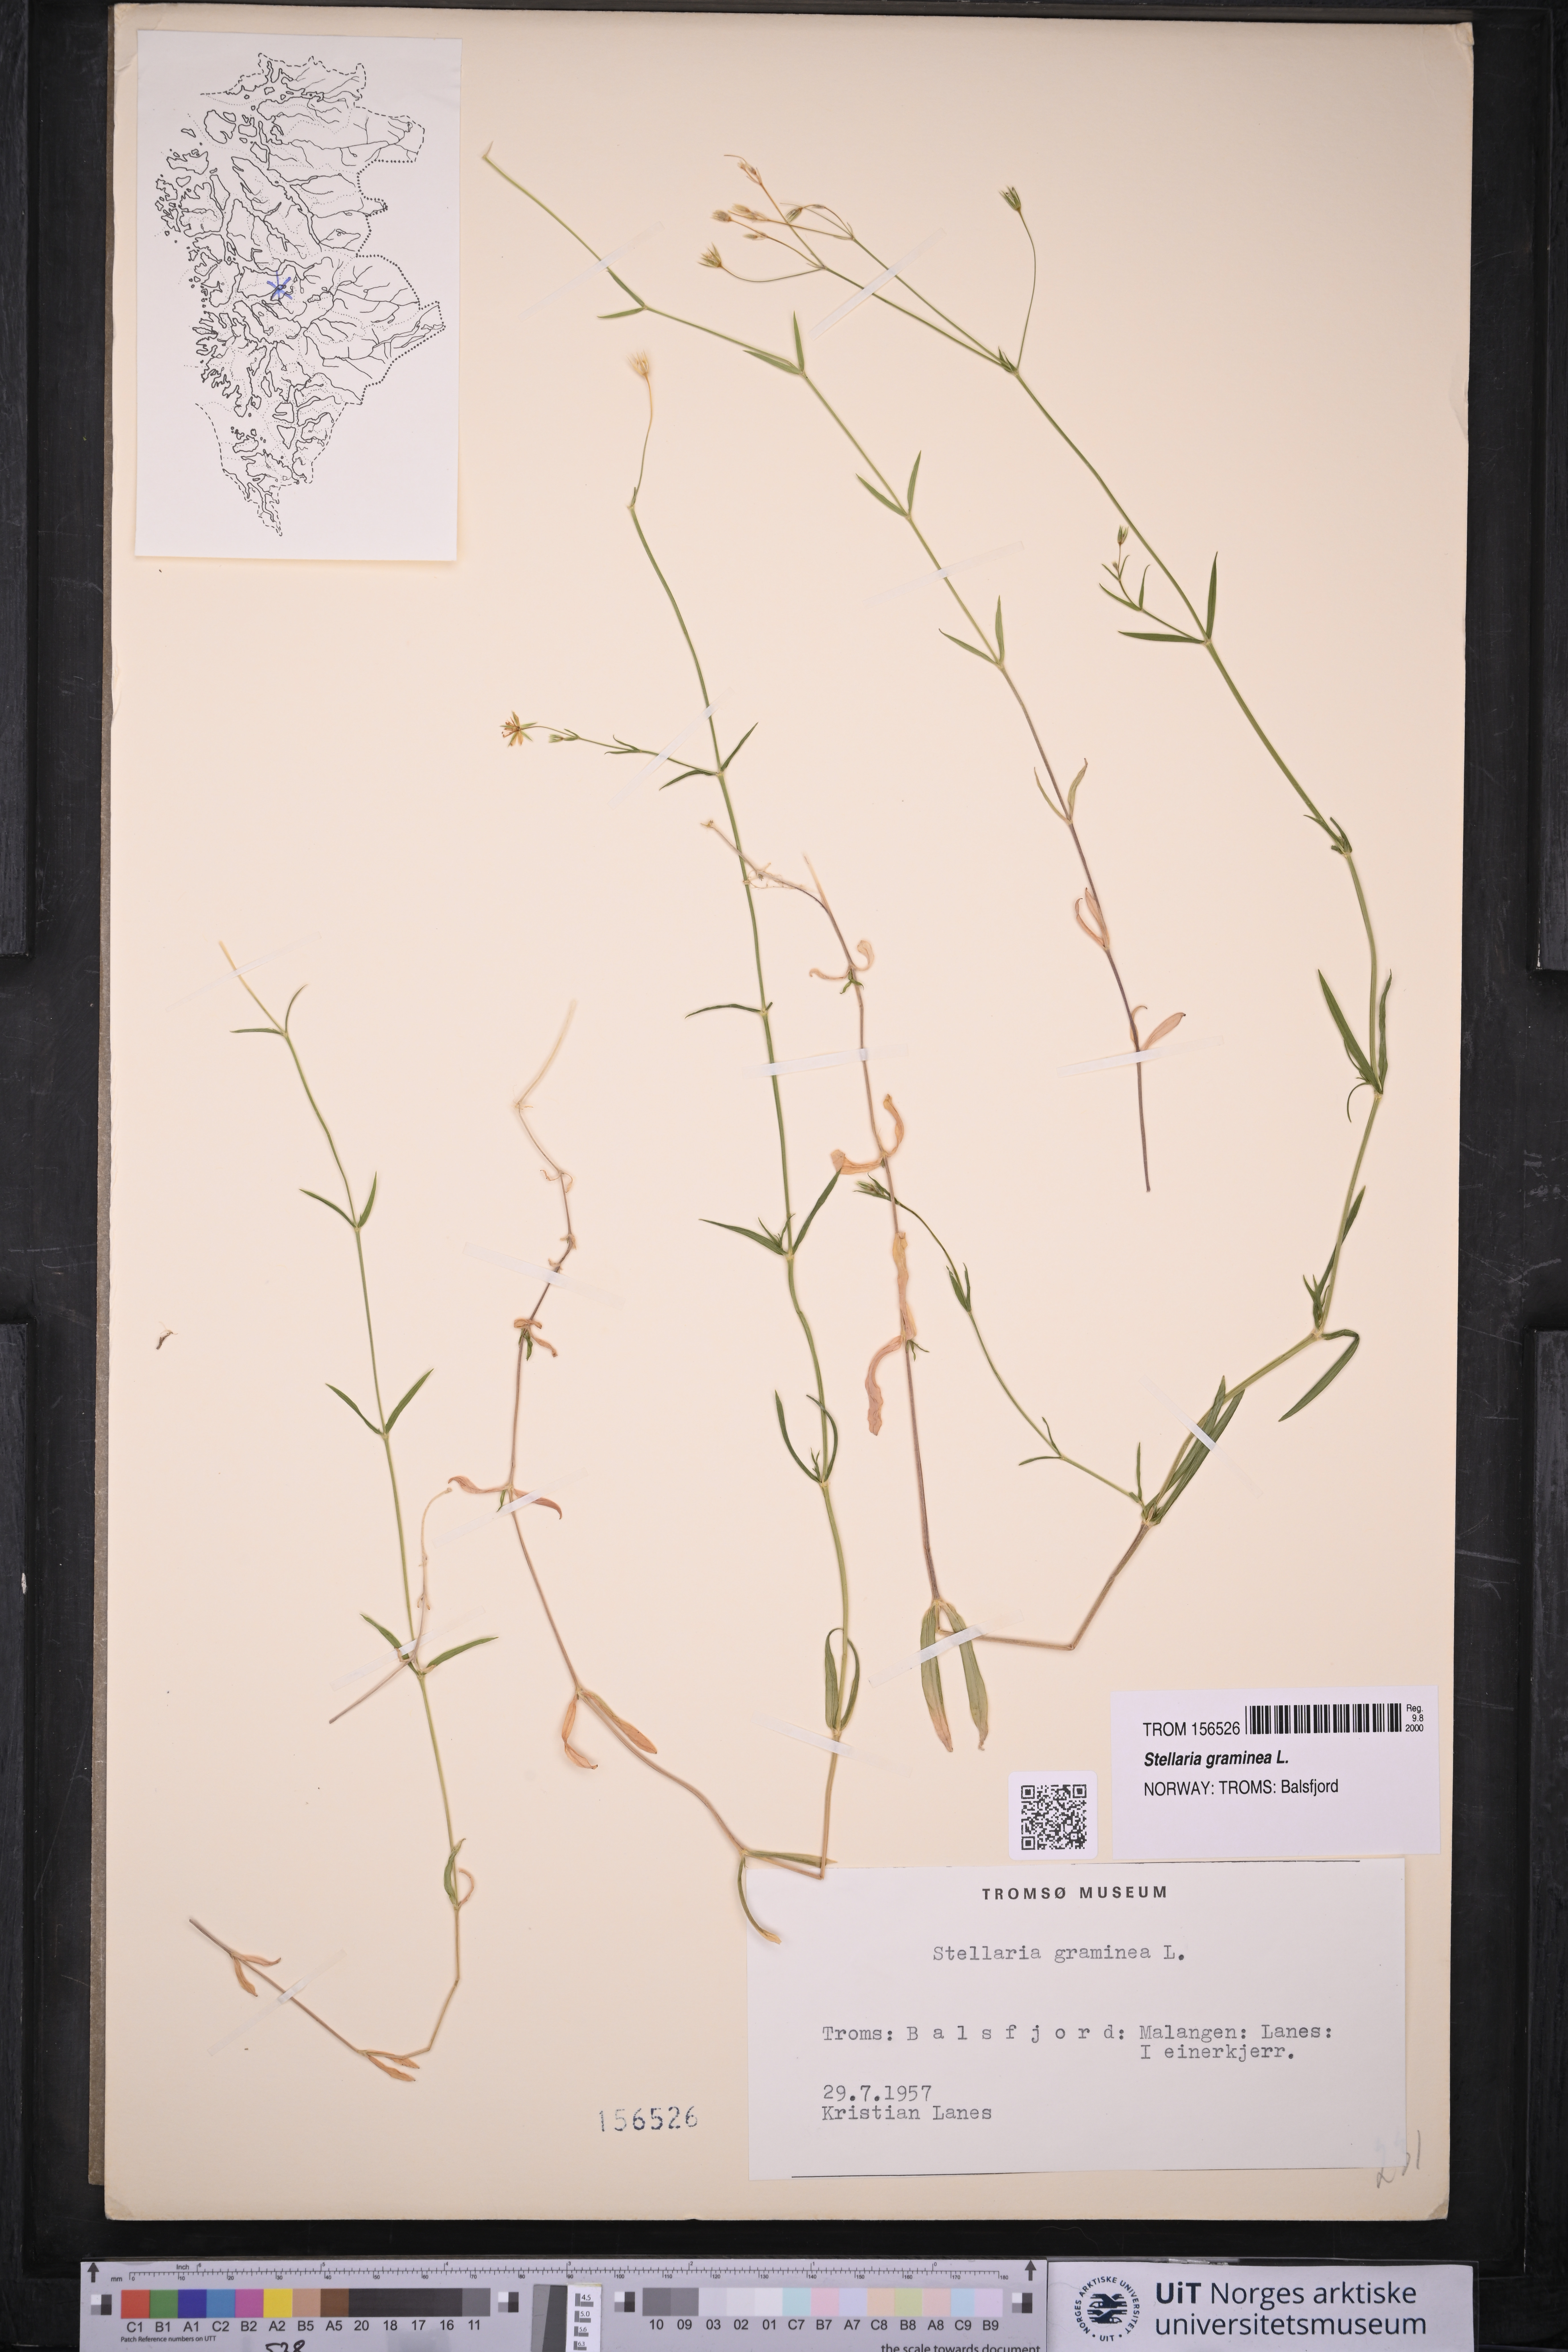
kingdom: Plantae
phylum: Tracheophyta
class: Magnoliopsida
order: Caryophyllales
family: Caryophyllaceae
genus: Stellaria
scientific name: Stellaria graminea
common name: Grass-like starwort
